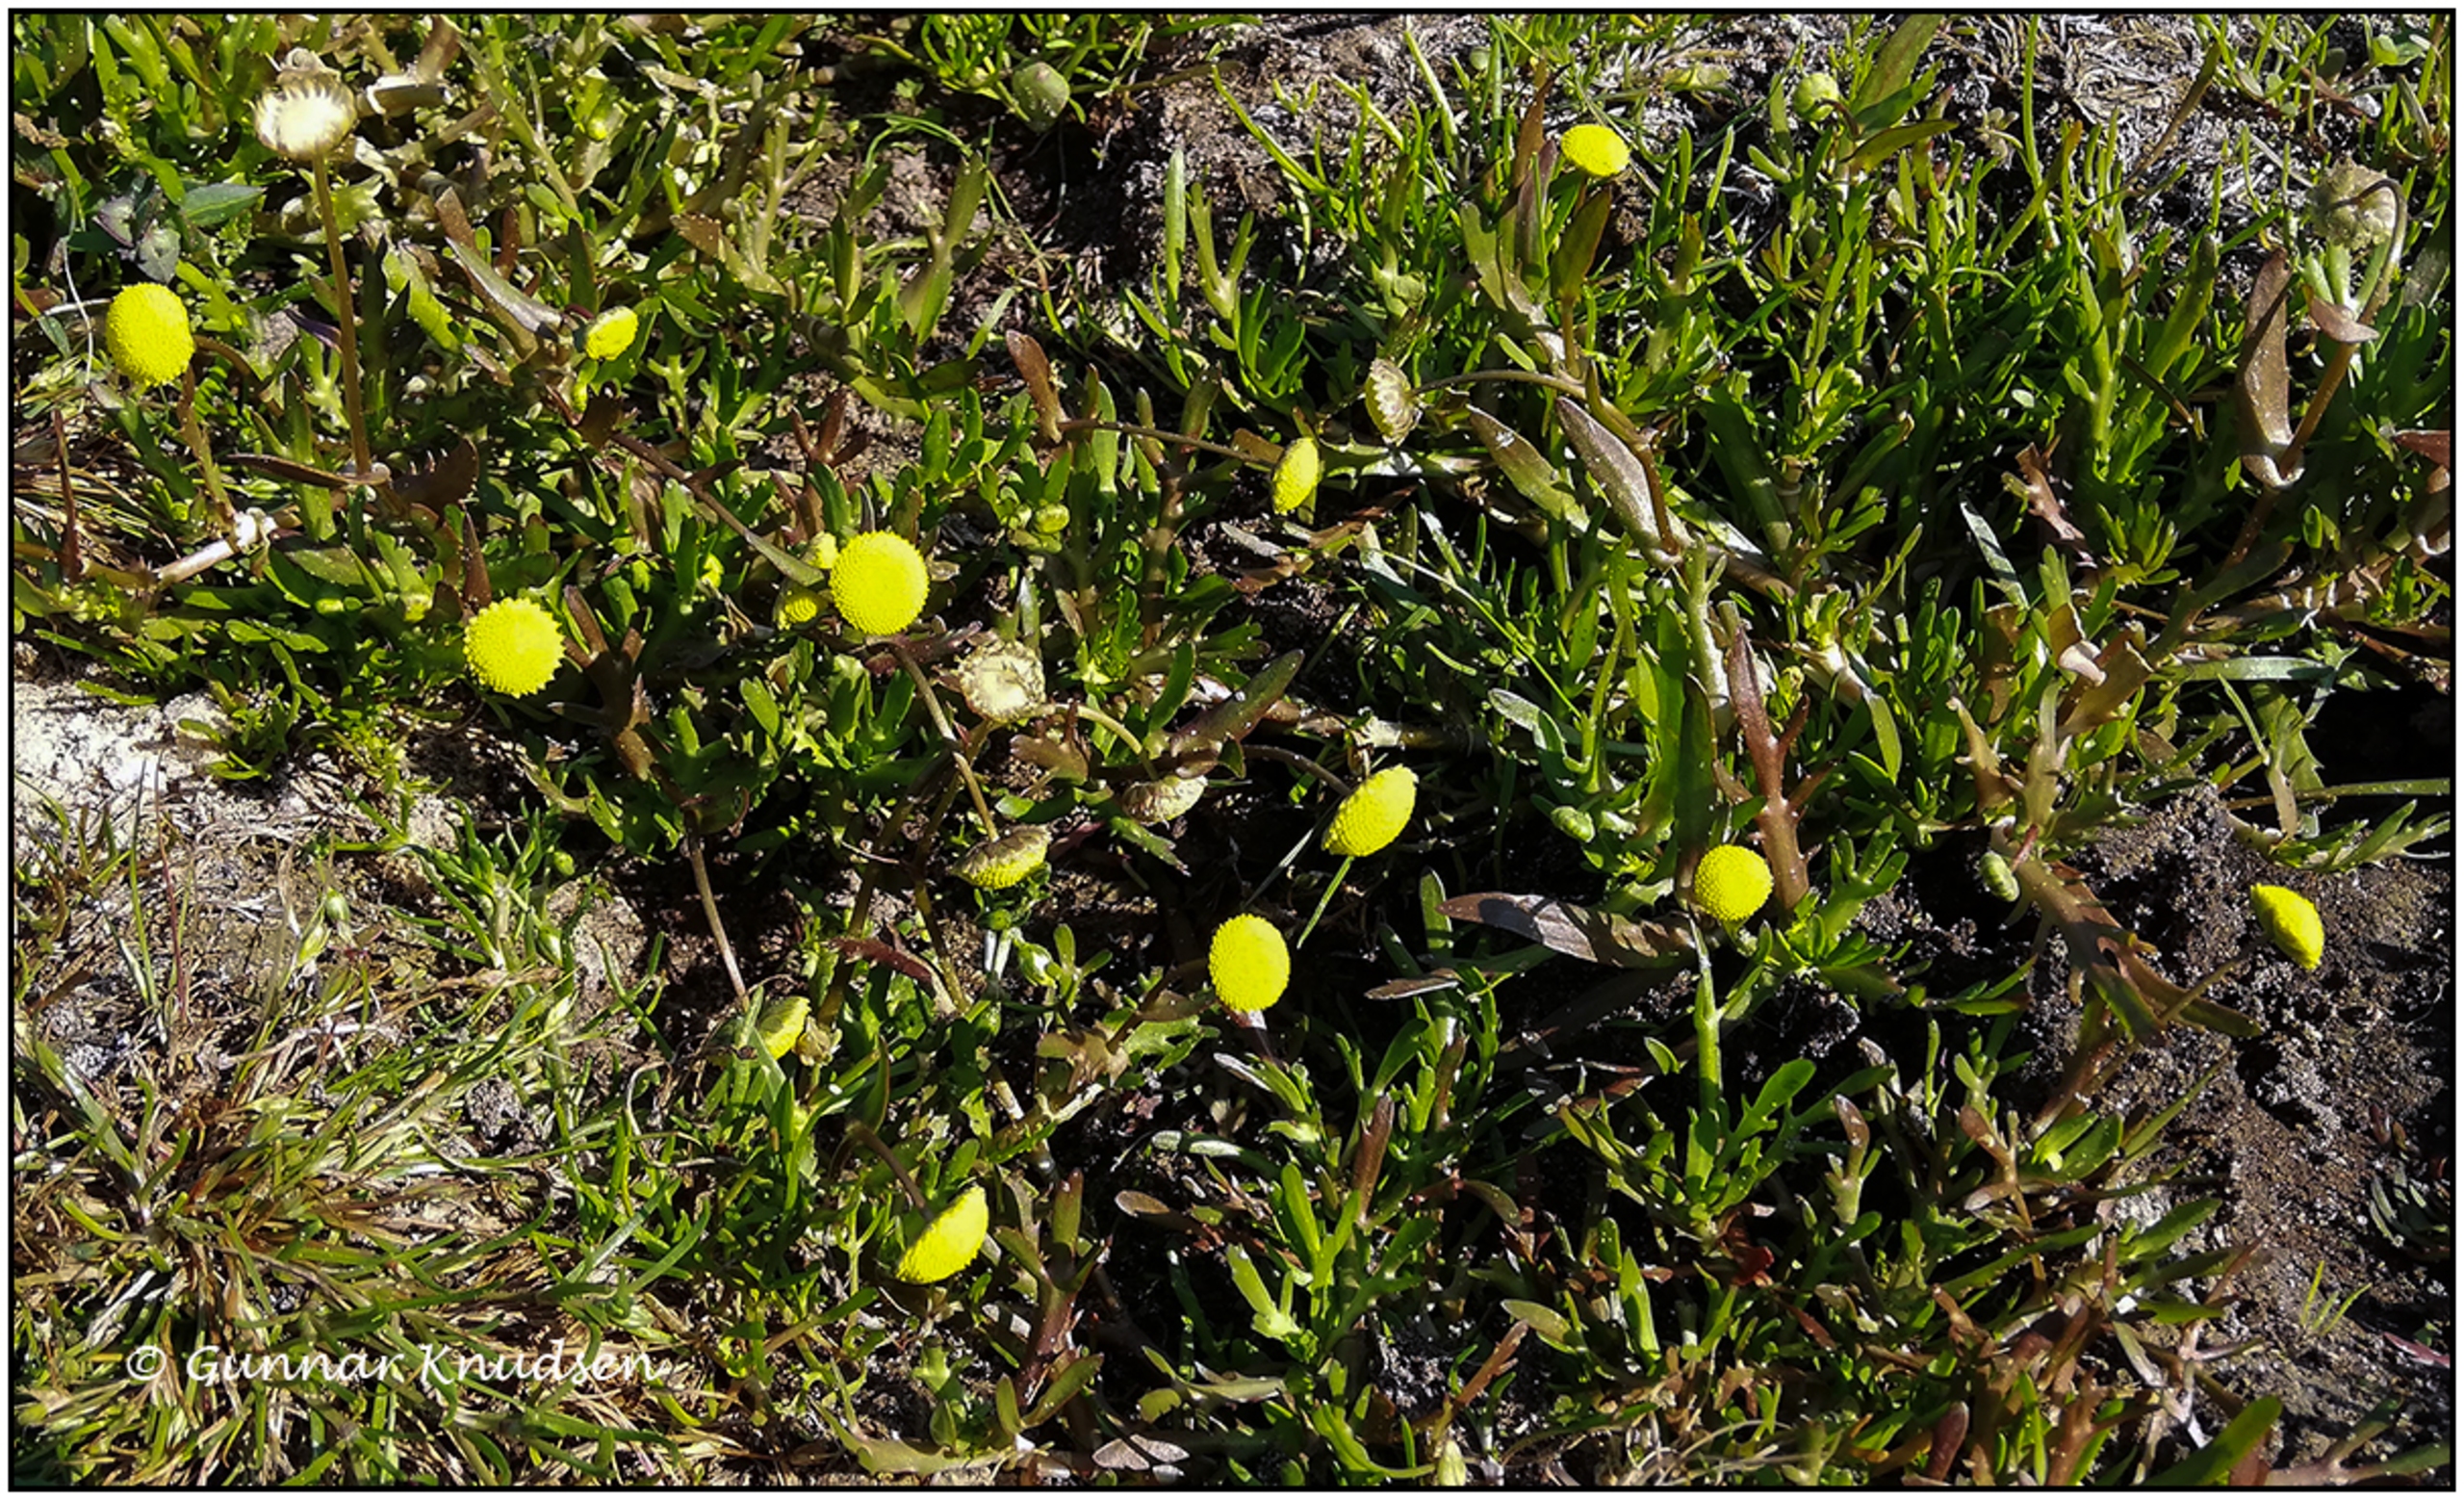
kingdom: Plantae
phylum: Tracheophyta
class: Magnoliopsida
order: Asterales
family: Asteraceae
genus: Cotula
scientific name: Cotula coronopifolia
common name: Firkløft
